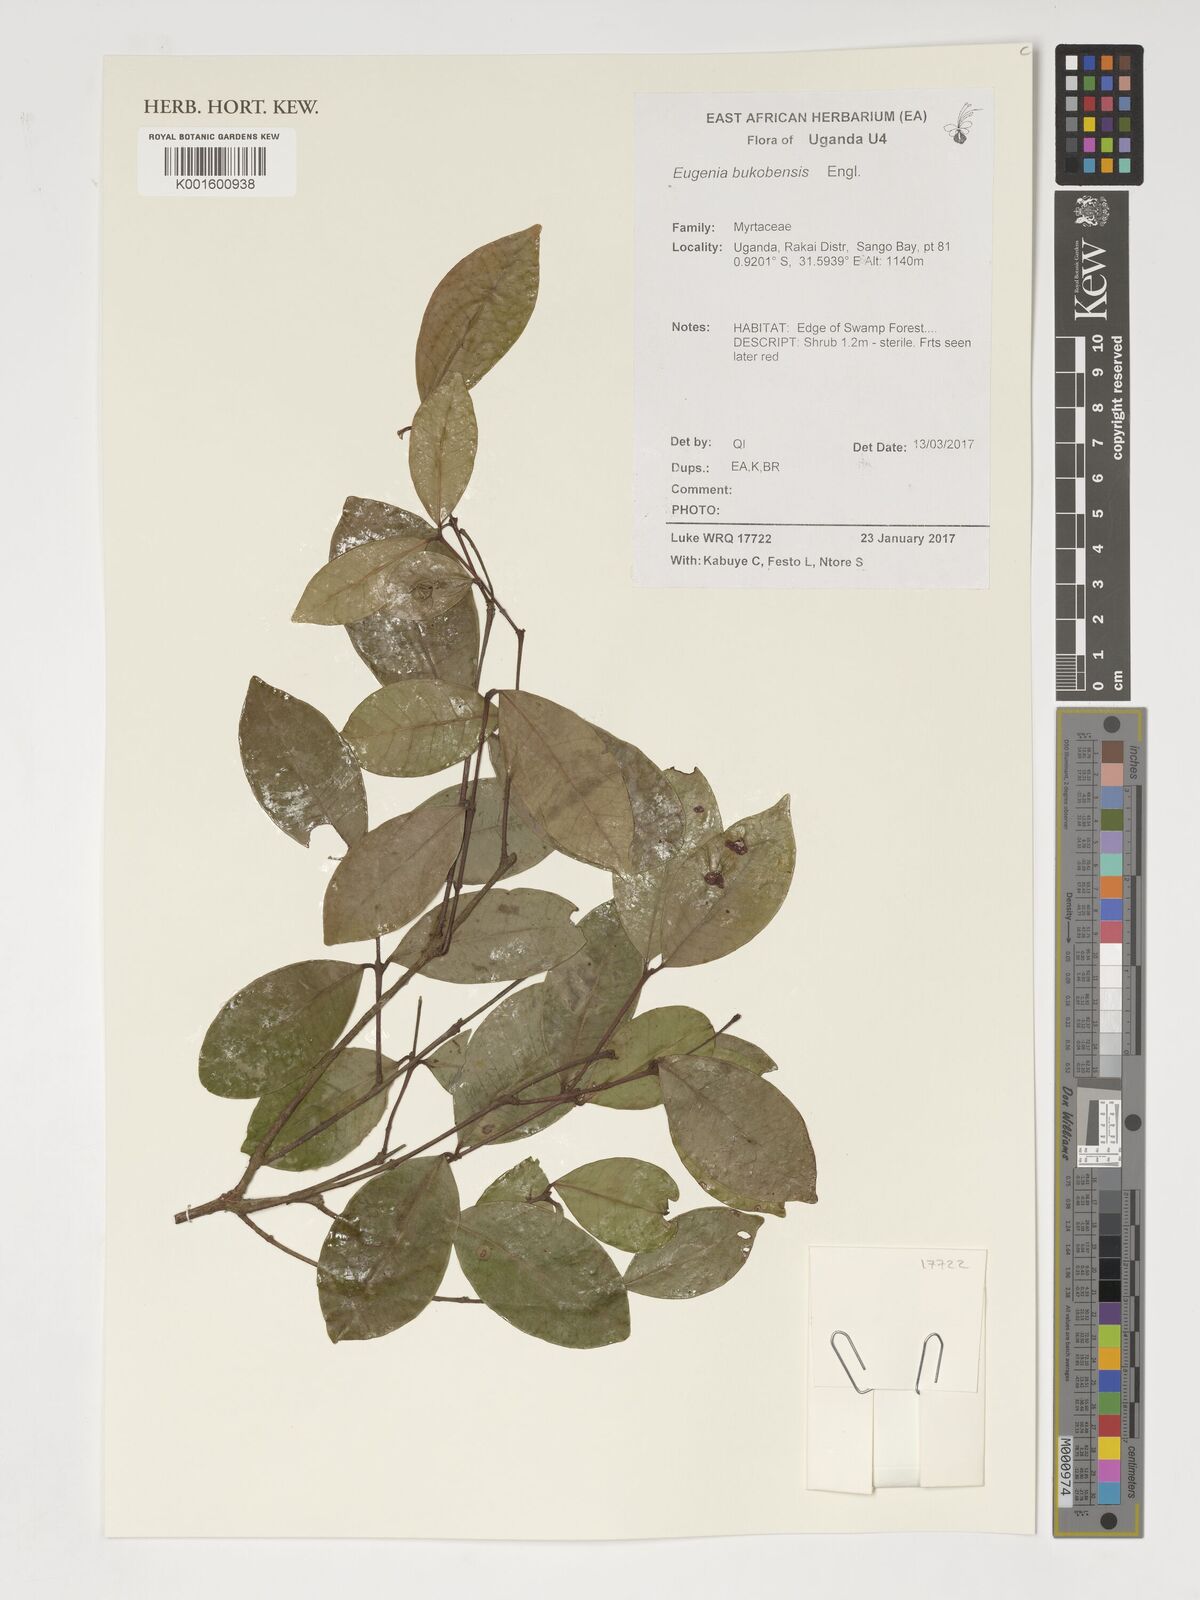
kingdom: Plantae
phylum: Tracheophyta
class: Magnoliopsida
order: Myrtales
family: Myrtaceae
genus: Eugenia
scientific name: Eugenia bukobensis
